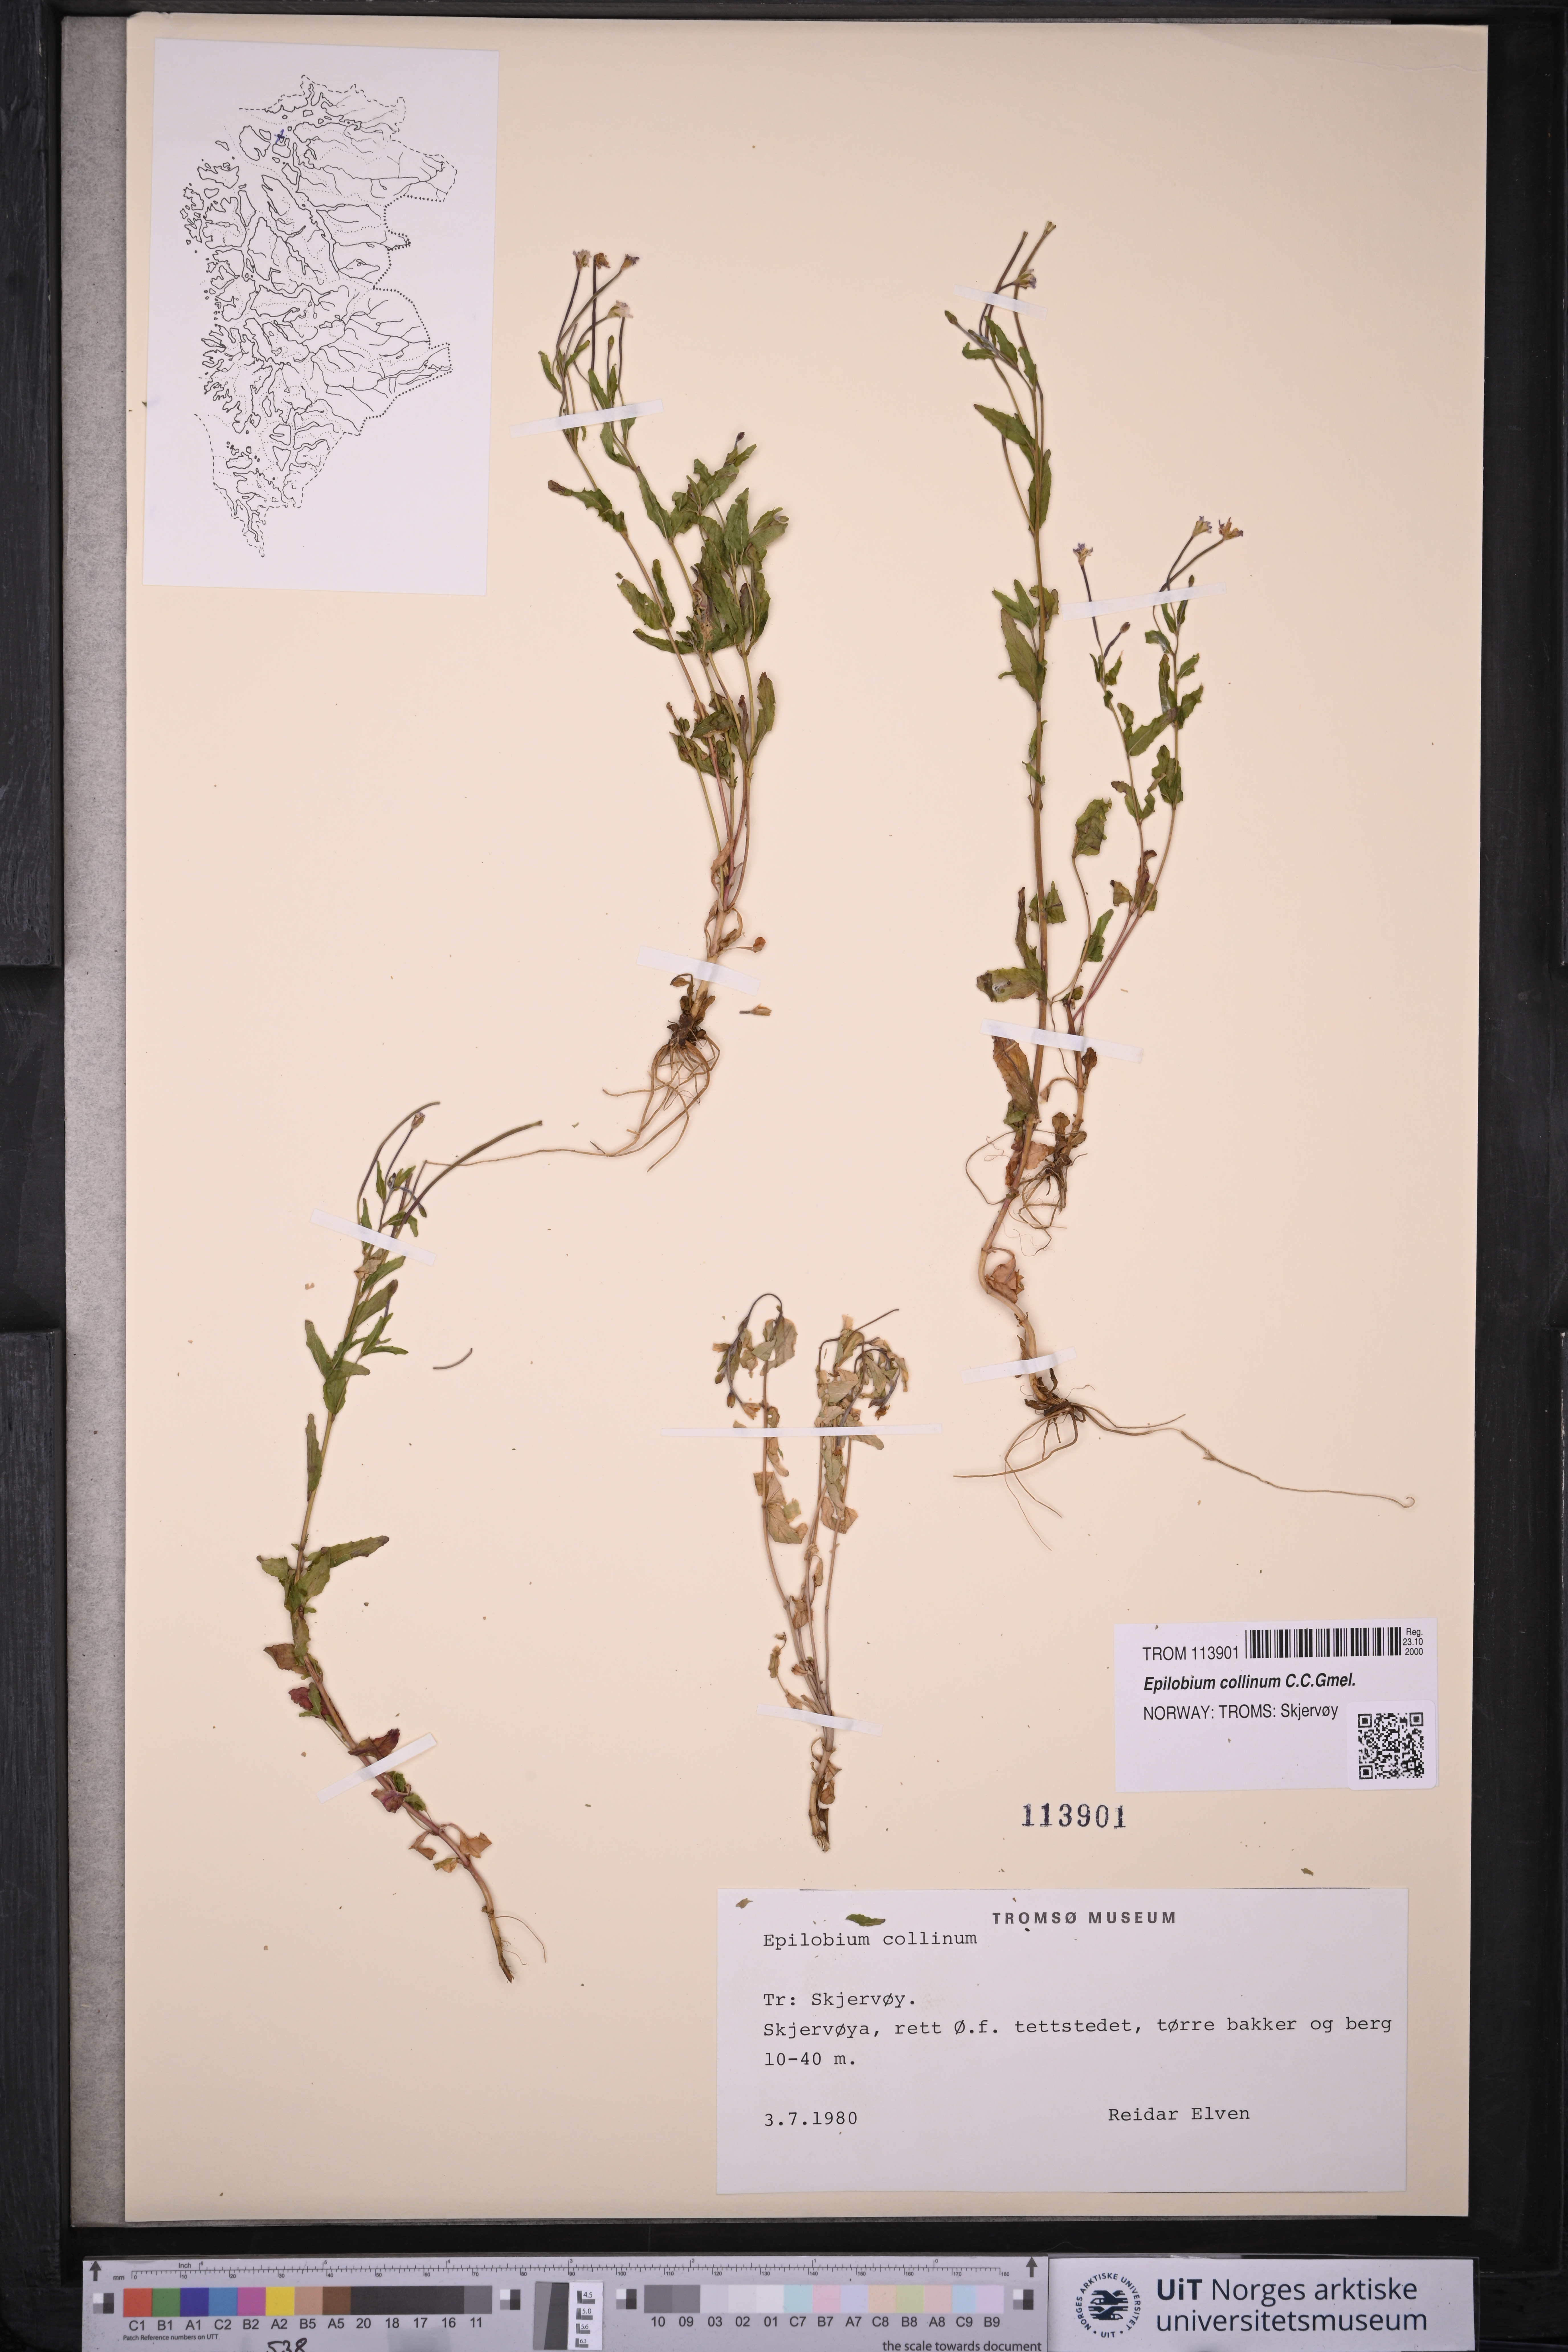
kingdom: Plantae
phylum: Tracheophyta
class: Magnoliopsida
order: Myrtales
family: Onagraceae
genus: Epilobium
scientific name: Epilobium collinum
